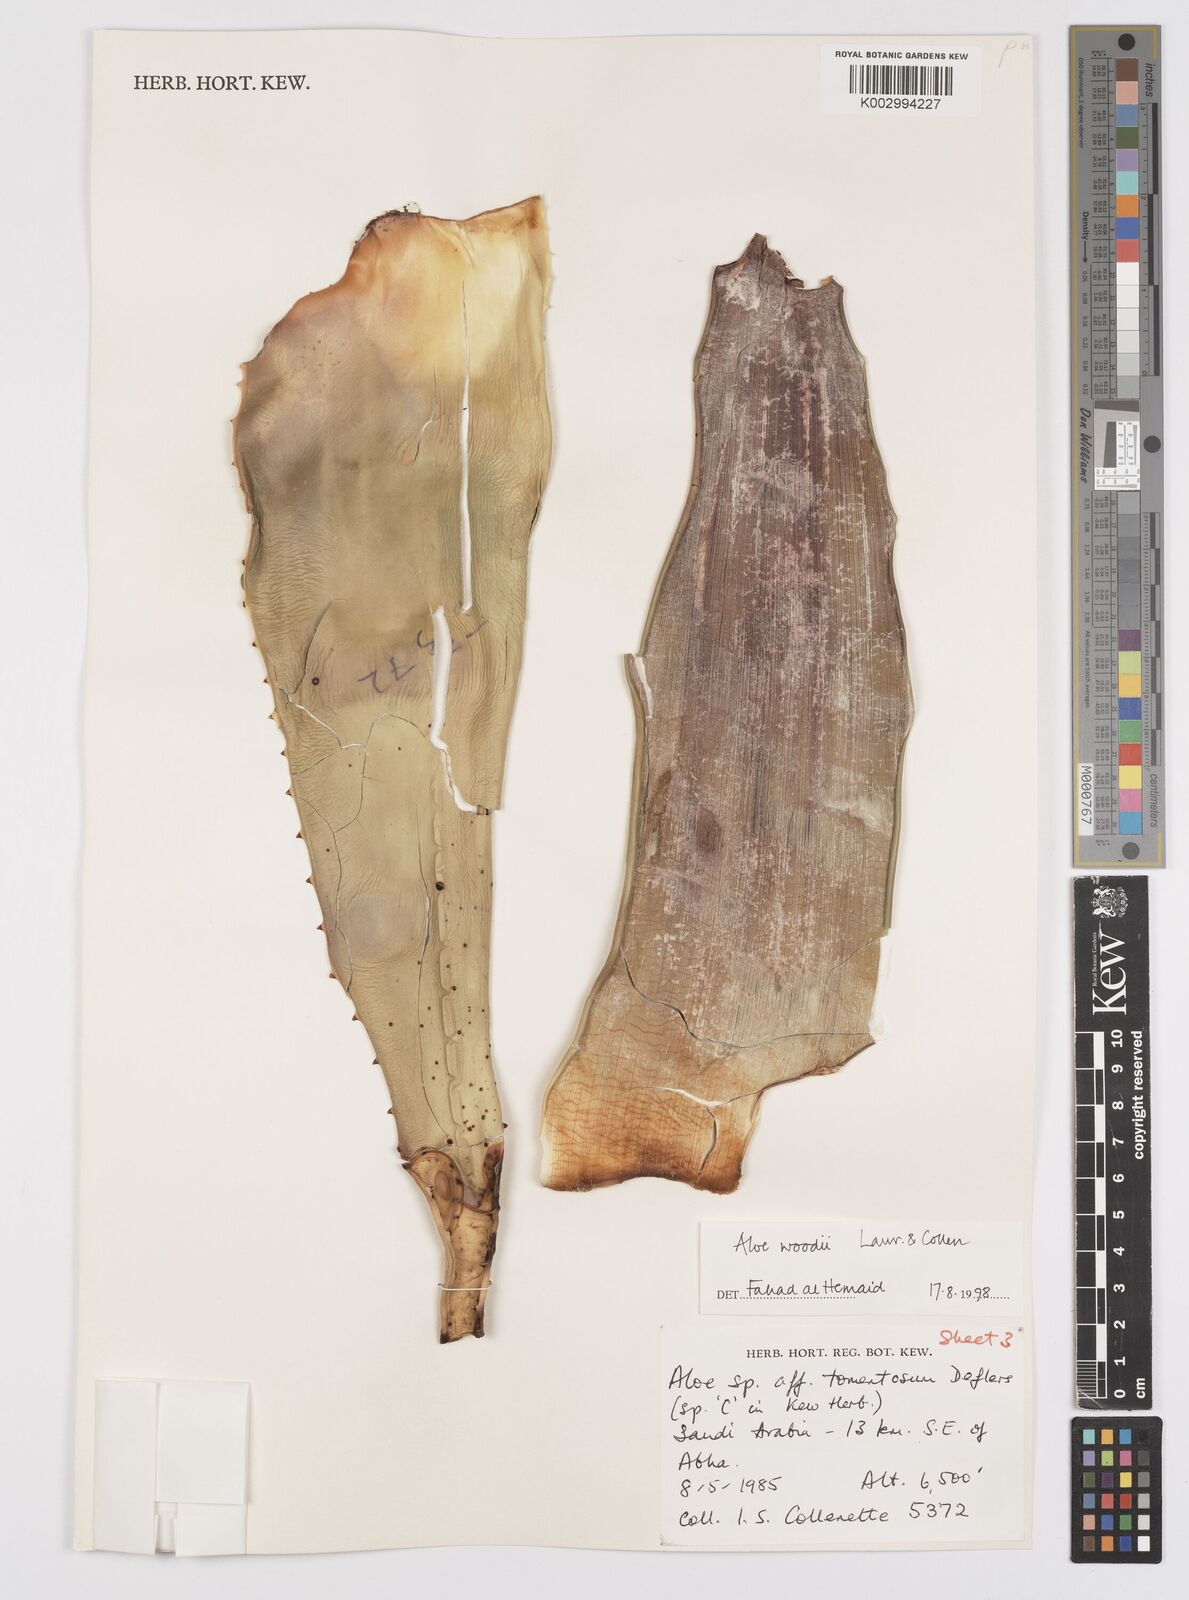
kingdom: Plantae
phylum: Tracheophyta
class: Liliopsida
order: Asparagales
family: Asphodelaceae
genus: Aloe
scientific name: Aloe woodii
